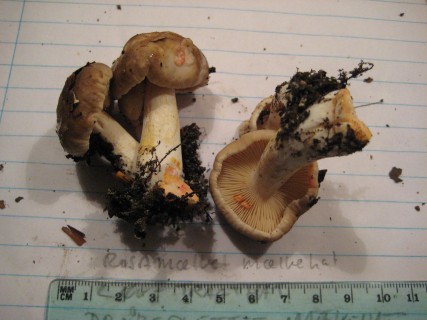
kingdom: Fungi
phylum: Basidiomycota
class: Agaricomycetes
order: Russulales
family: Russulaceae
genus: Lactarius
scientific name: Lactarius acris
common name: rosamælket mælkehat
